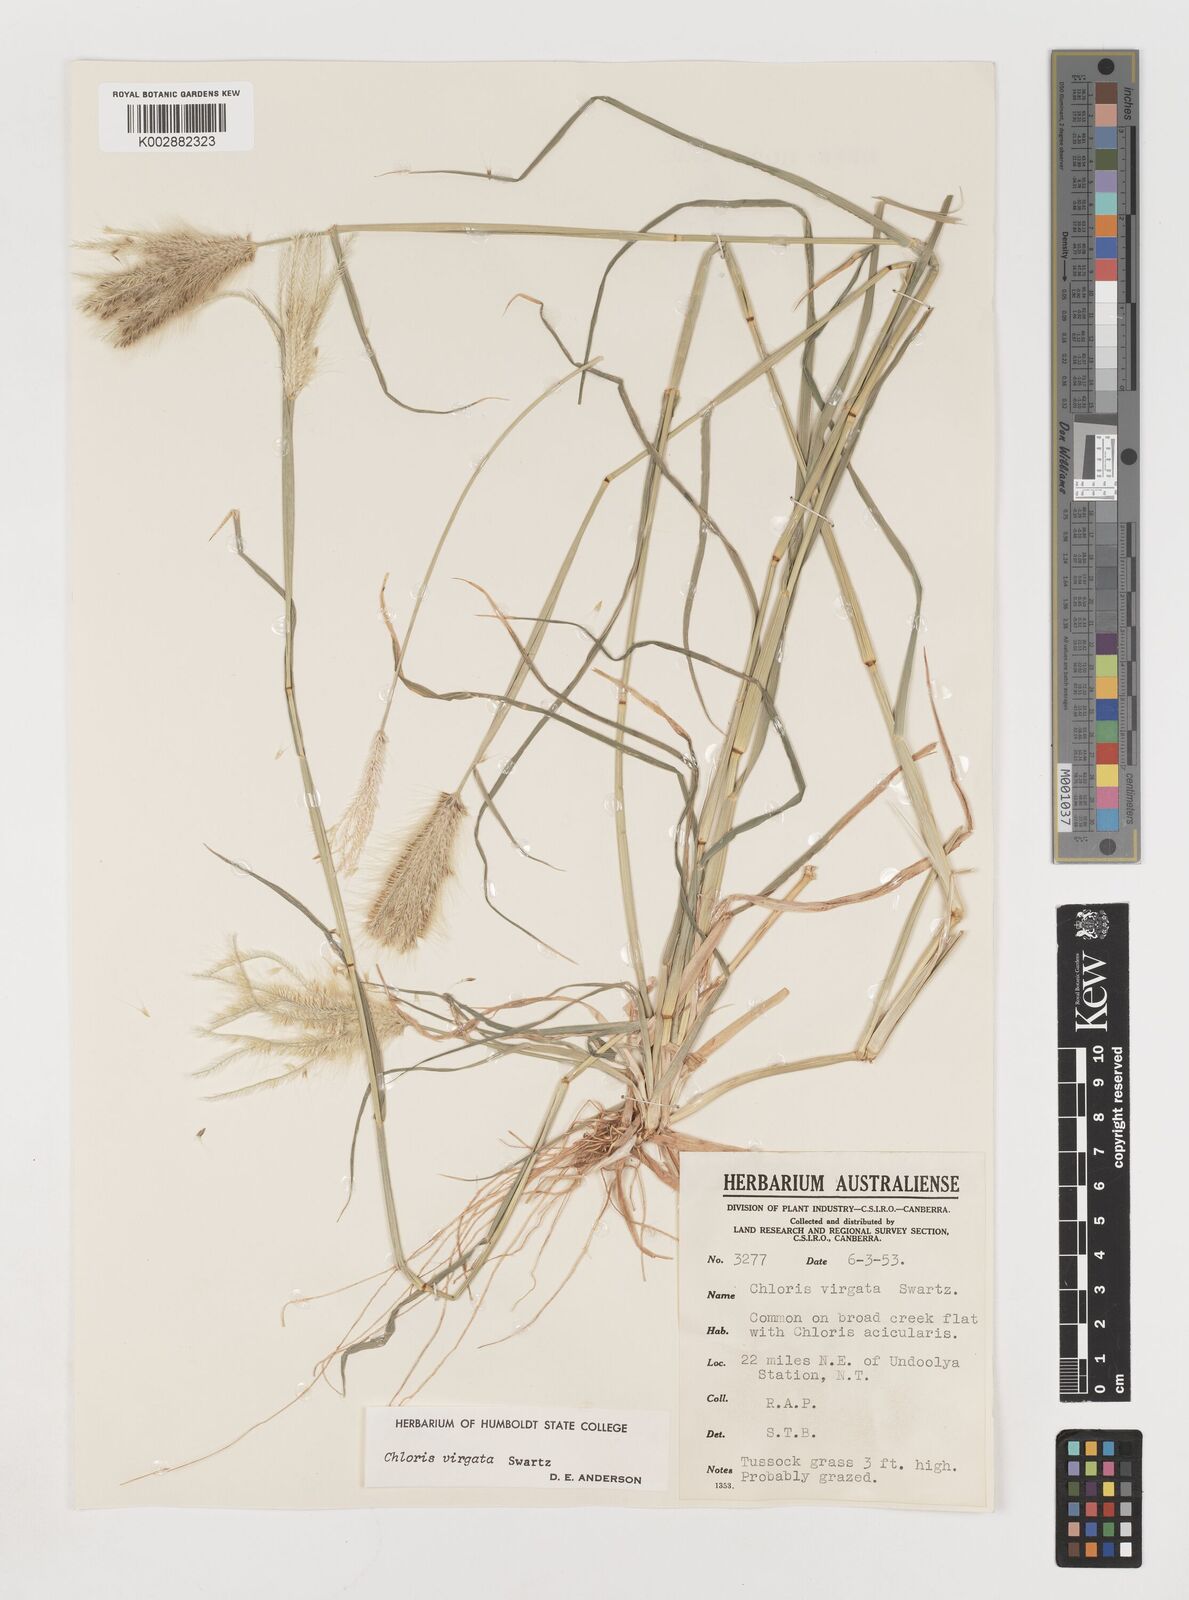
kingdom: Plantae
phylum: Tracheophyta
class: Liliopsida
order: Poales
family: Poaceae
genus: Chloris
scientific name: Chloris virgata
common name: Feathery rhodes-grass
